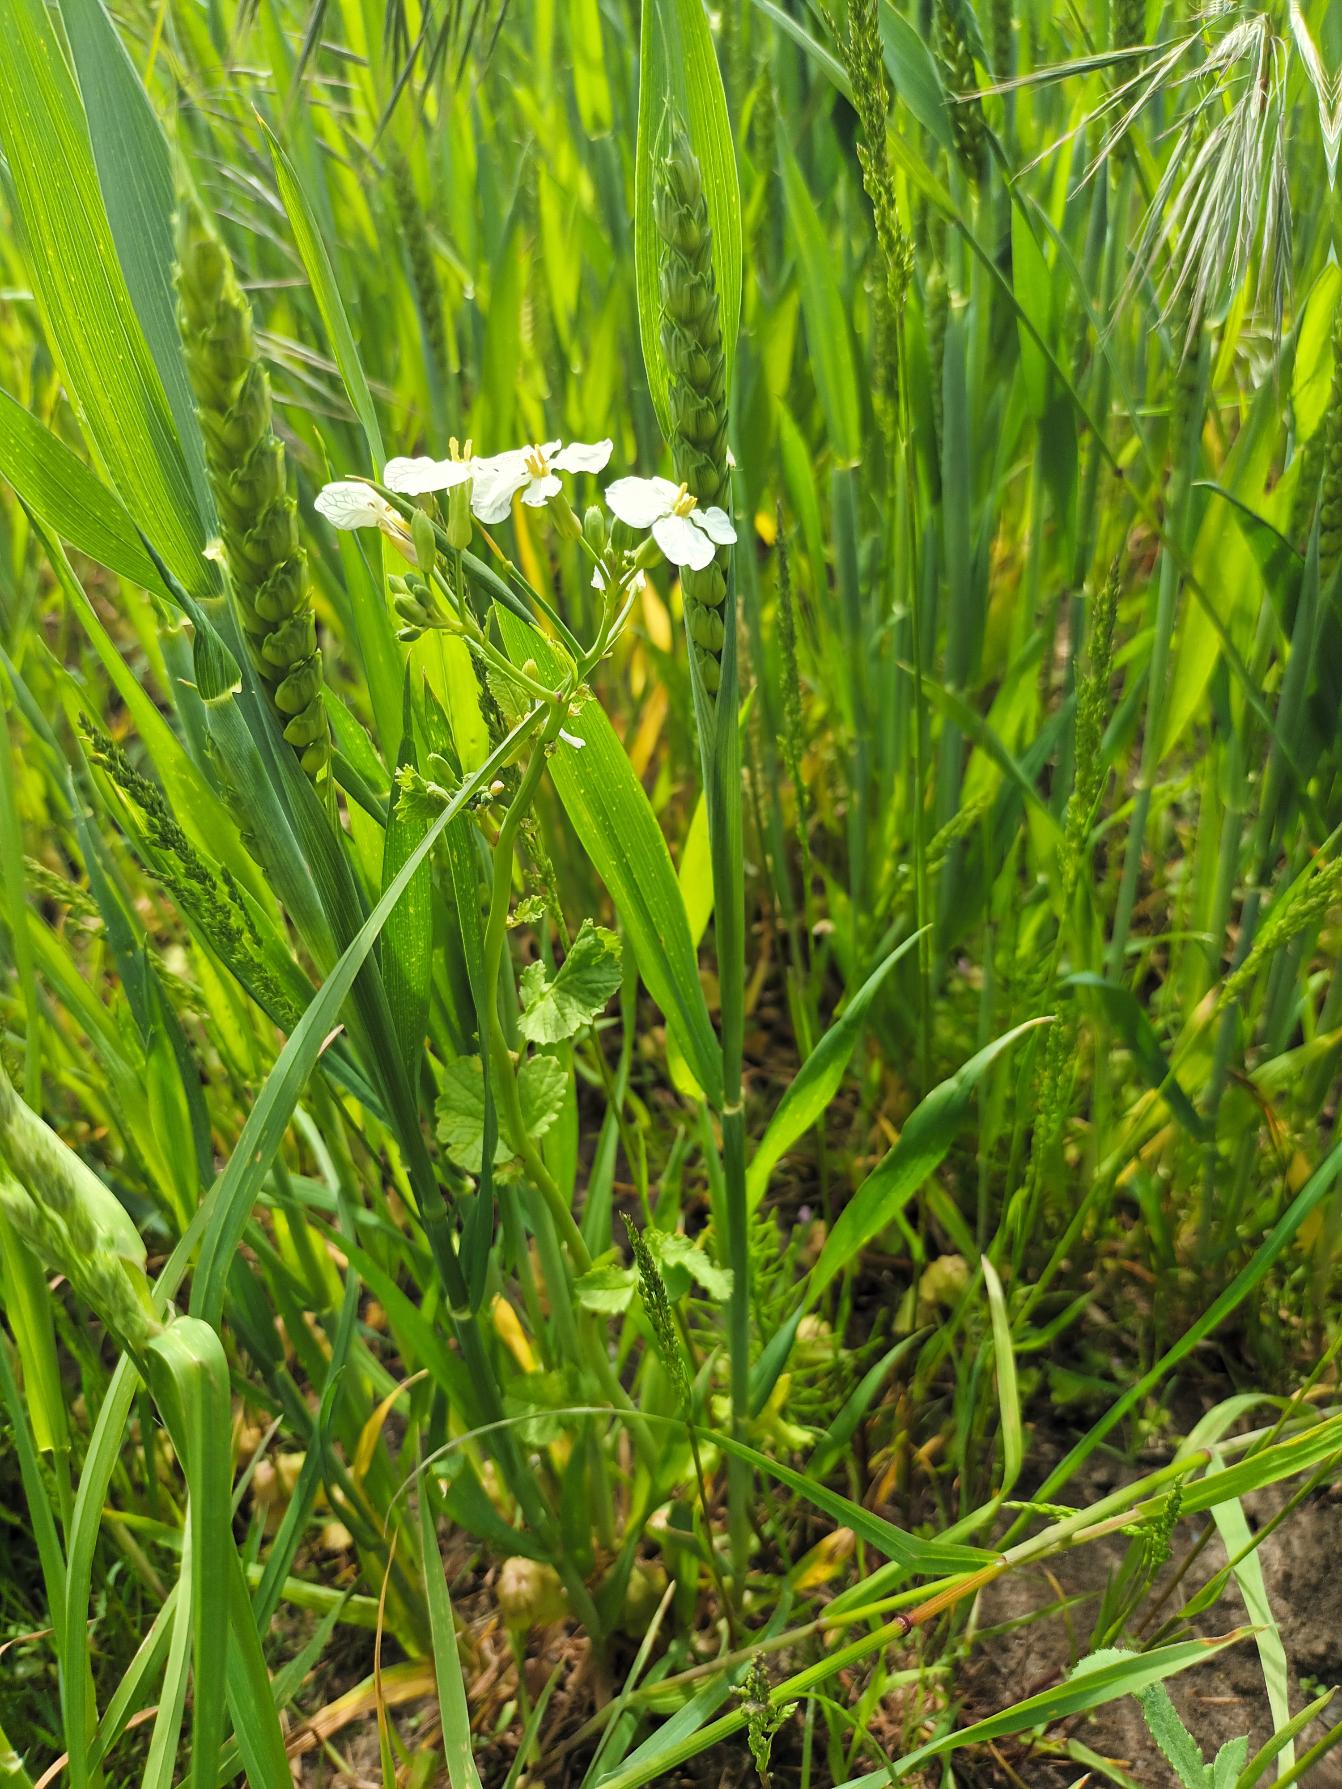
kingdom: Plantae
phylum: Tracheophyta
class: Magnoliopsida
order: Brassicales
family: Brassicaceae
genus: Raphanus
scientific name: Raphanus sativus
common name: Olie-ræddike
